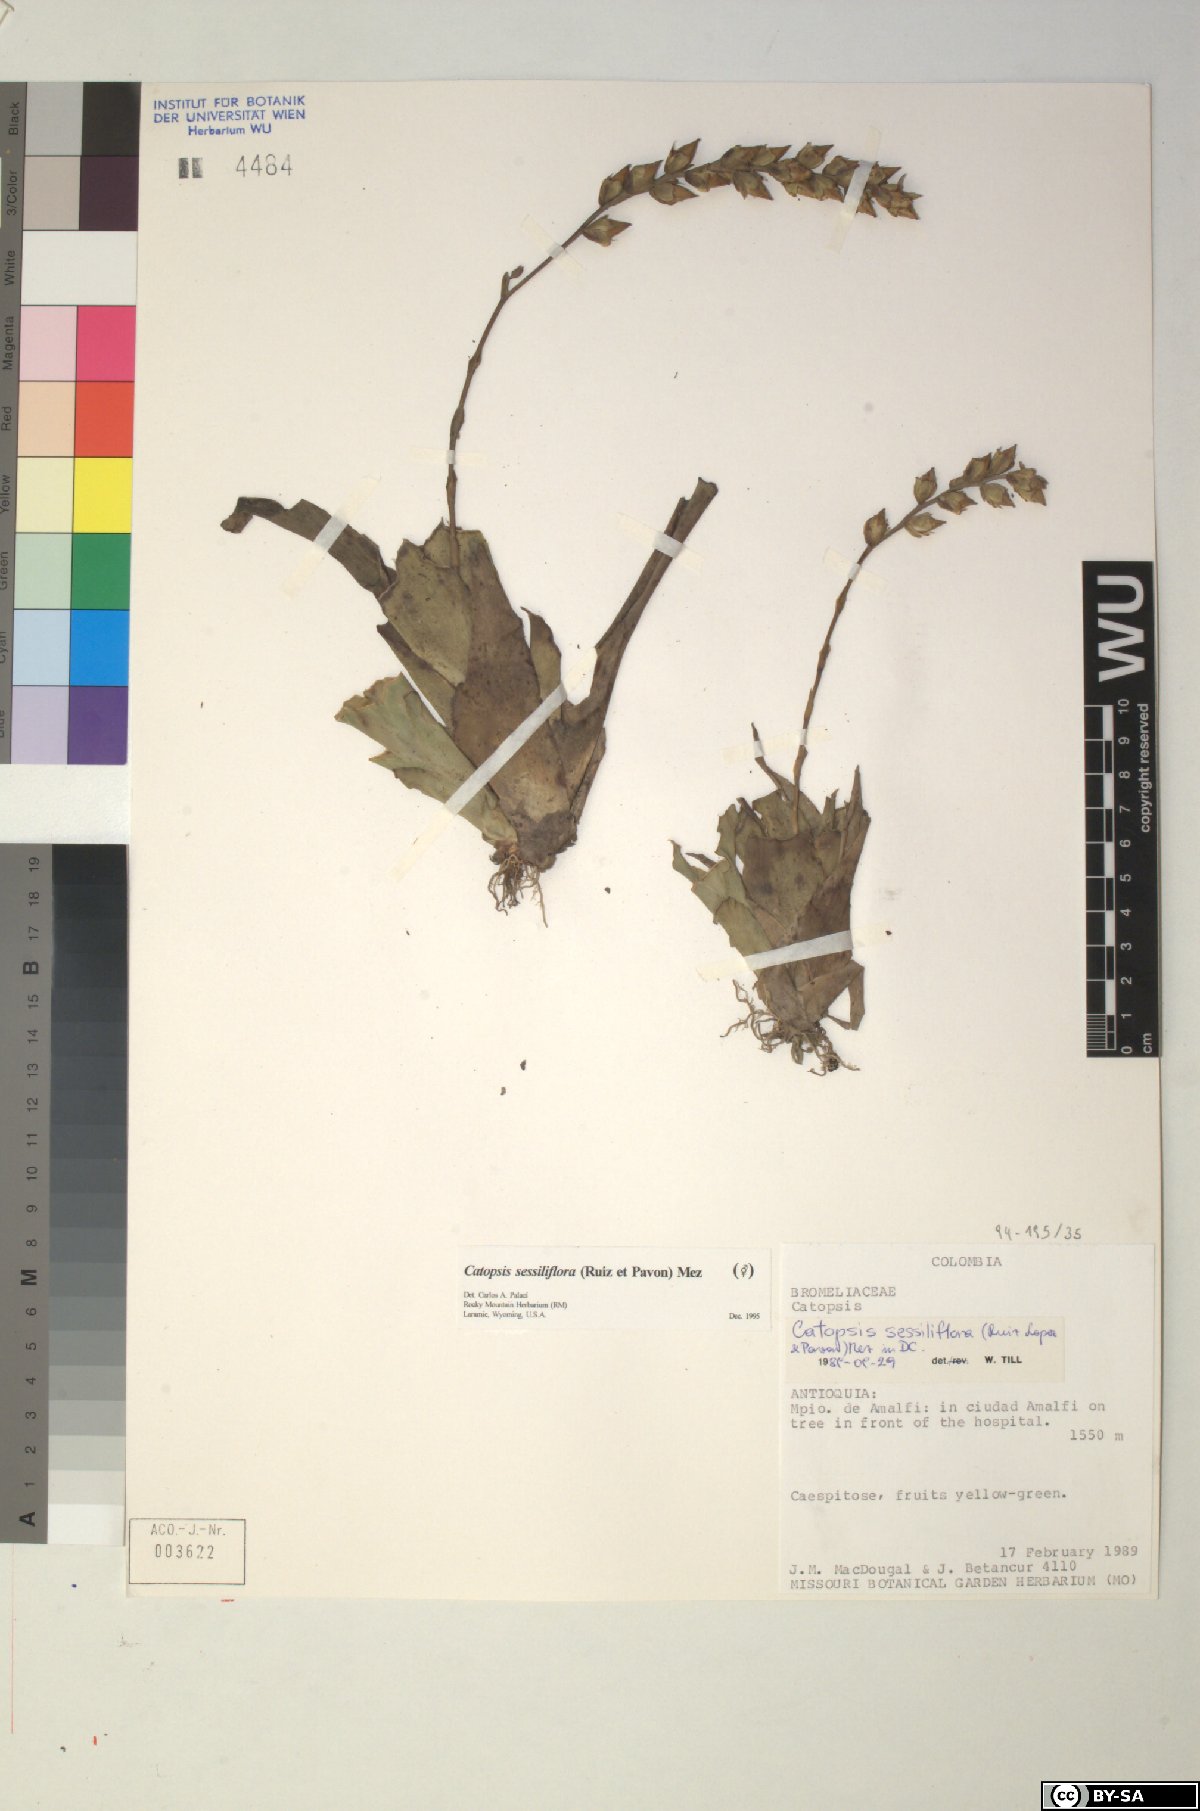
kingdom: Plantae
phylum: Tracheophyta
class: Liliopsida
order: Poales
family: Bromeliaceae
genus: Catopsis
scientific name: Catopsis sessiliflora
